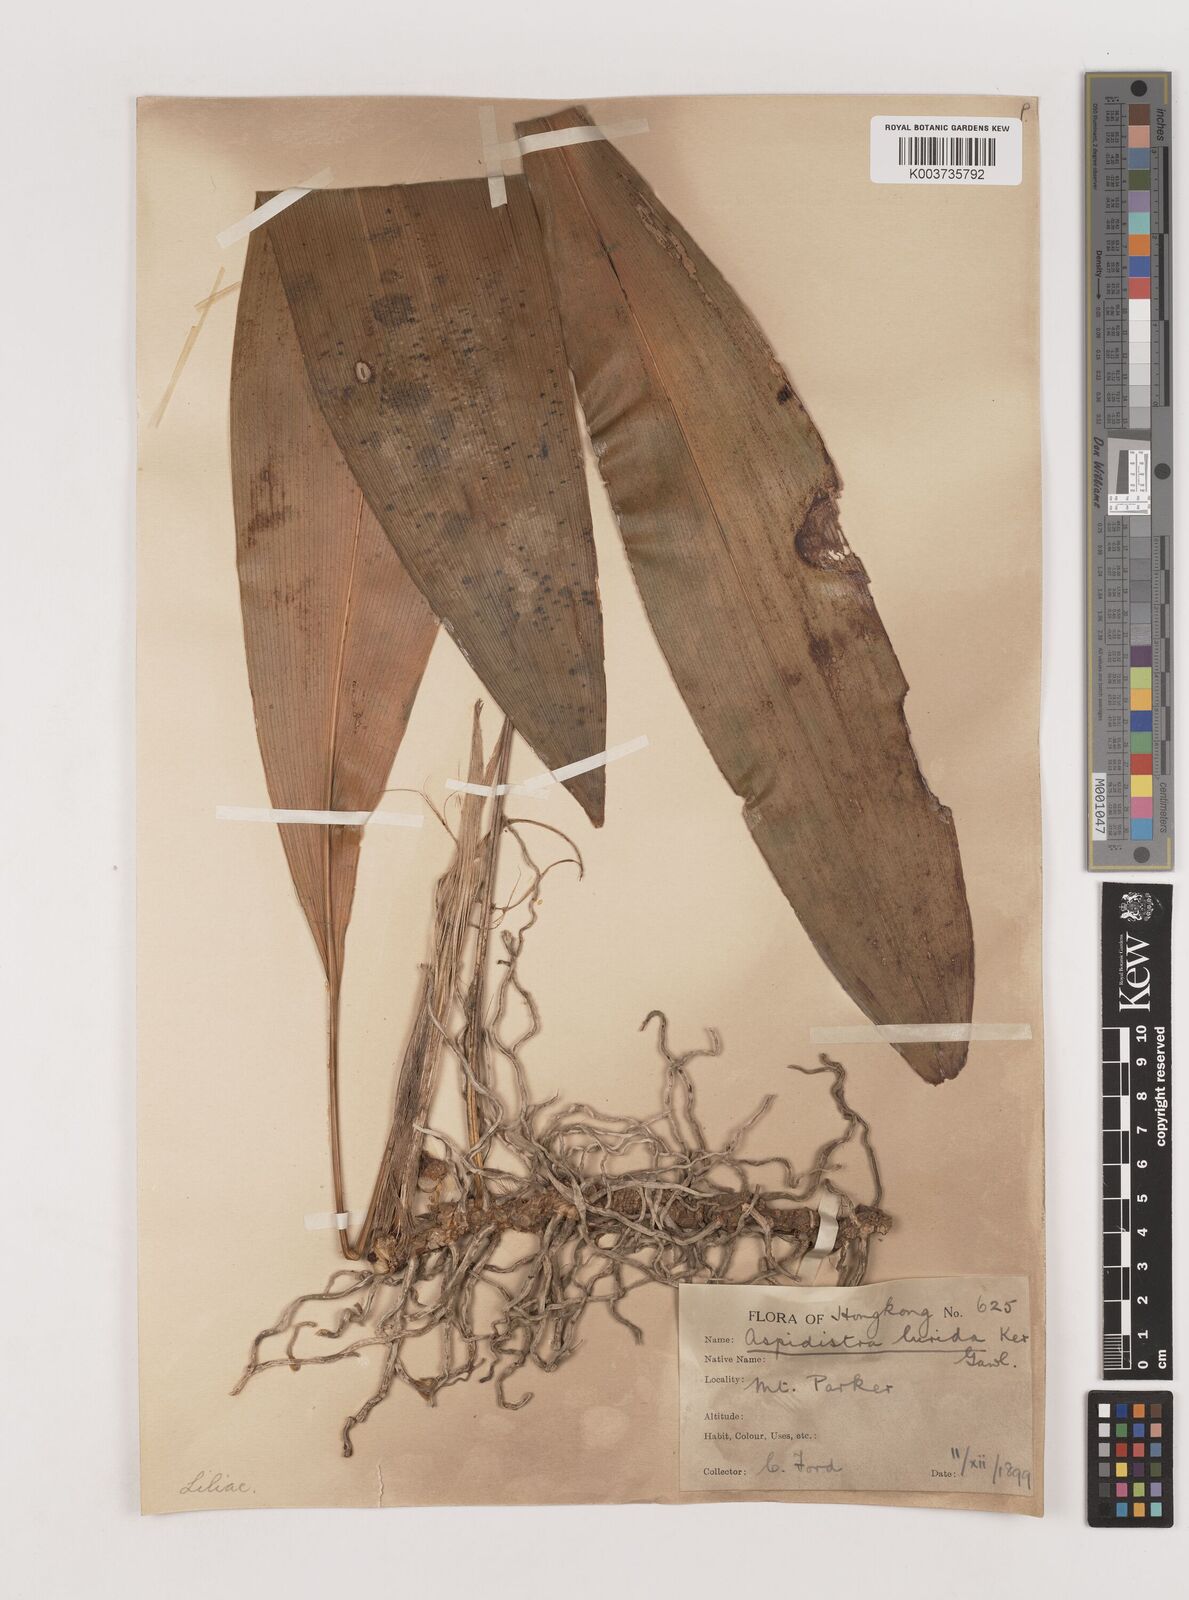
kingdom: Plantae
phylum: Tracheophyta
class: Liliopsida
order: Asparagales
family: Asparagaceae
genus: Aspidistra
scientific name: Aspidistra lurida
